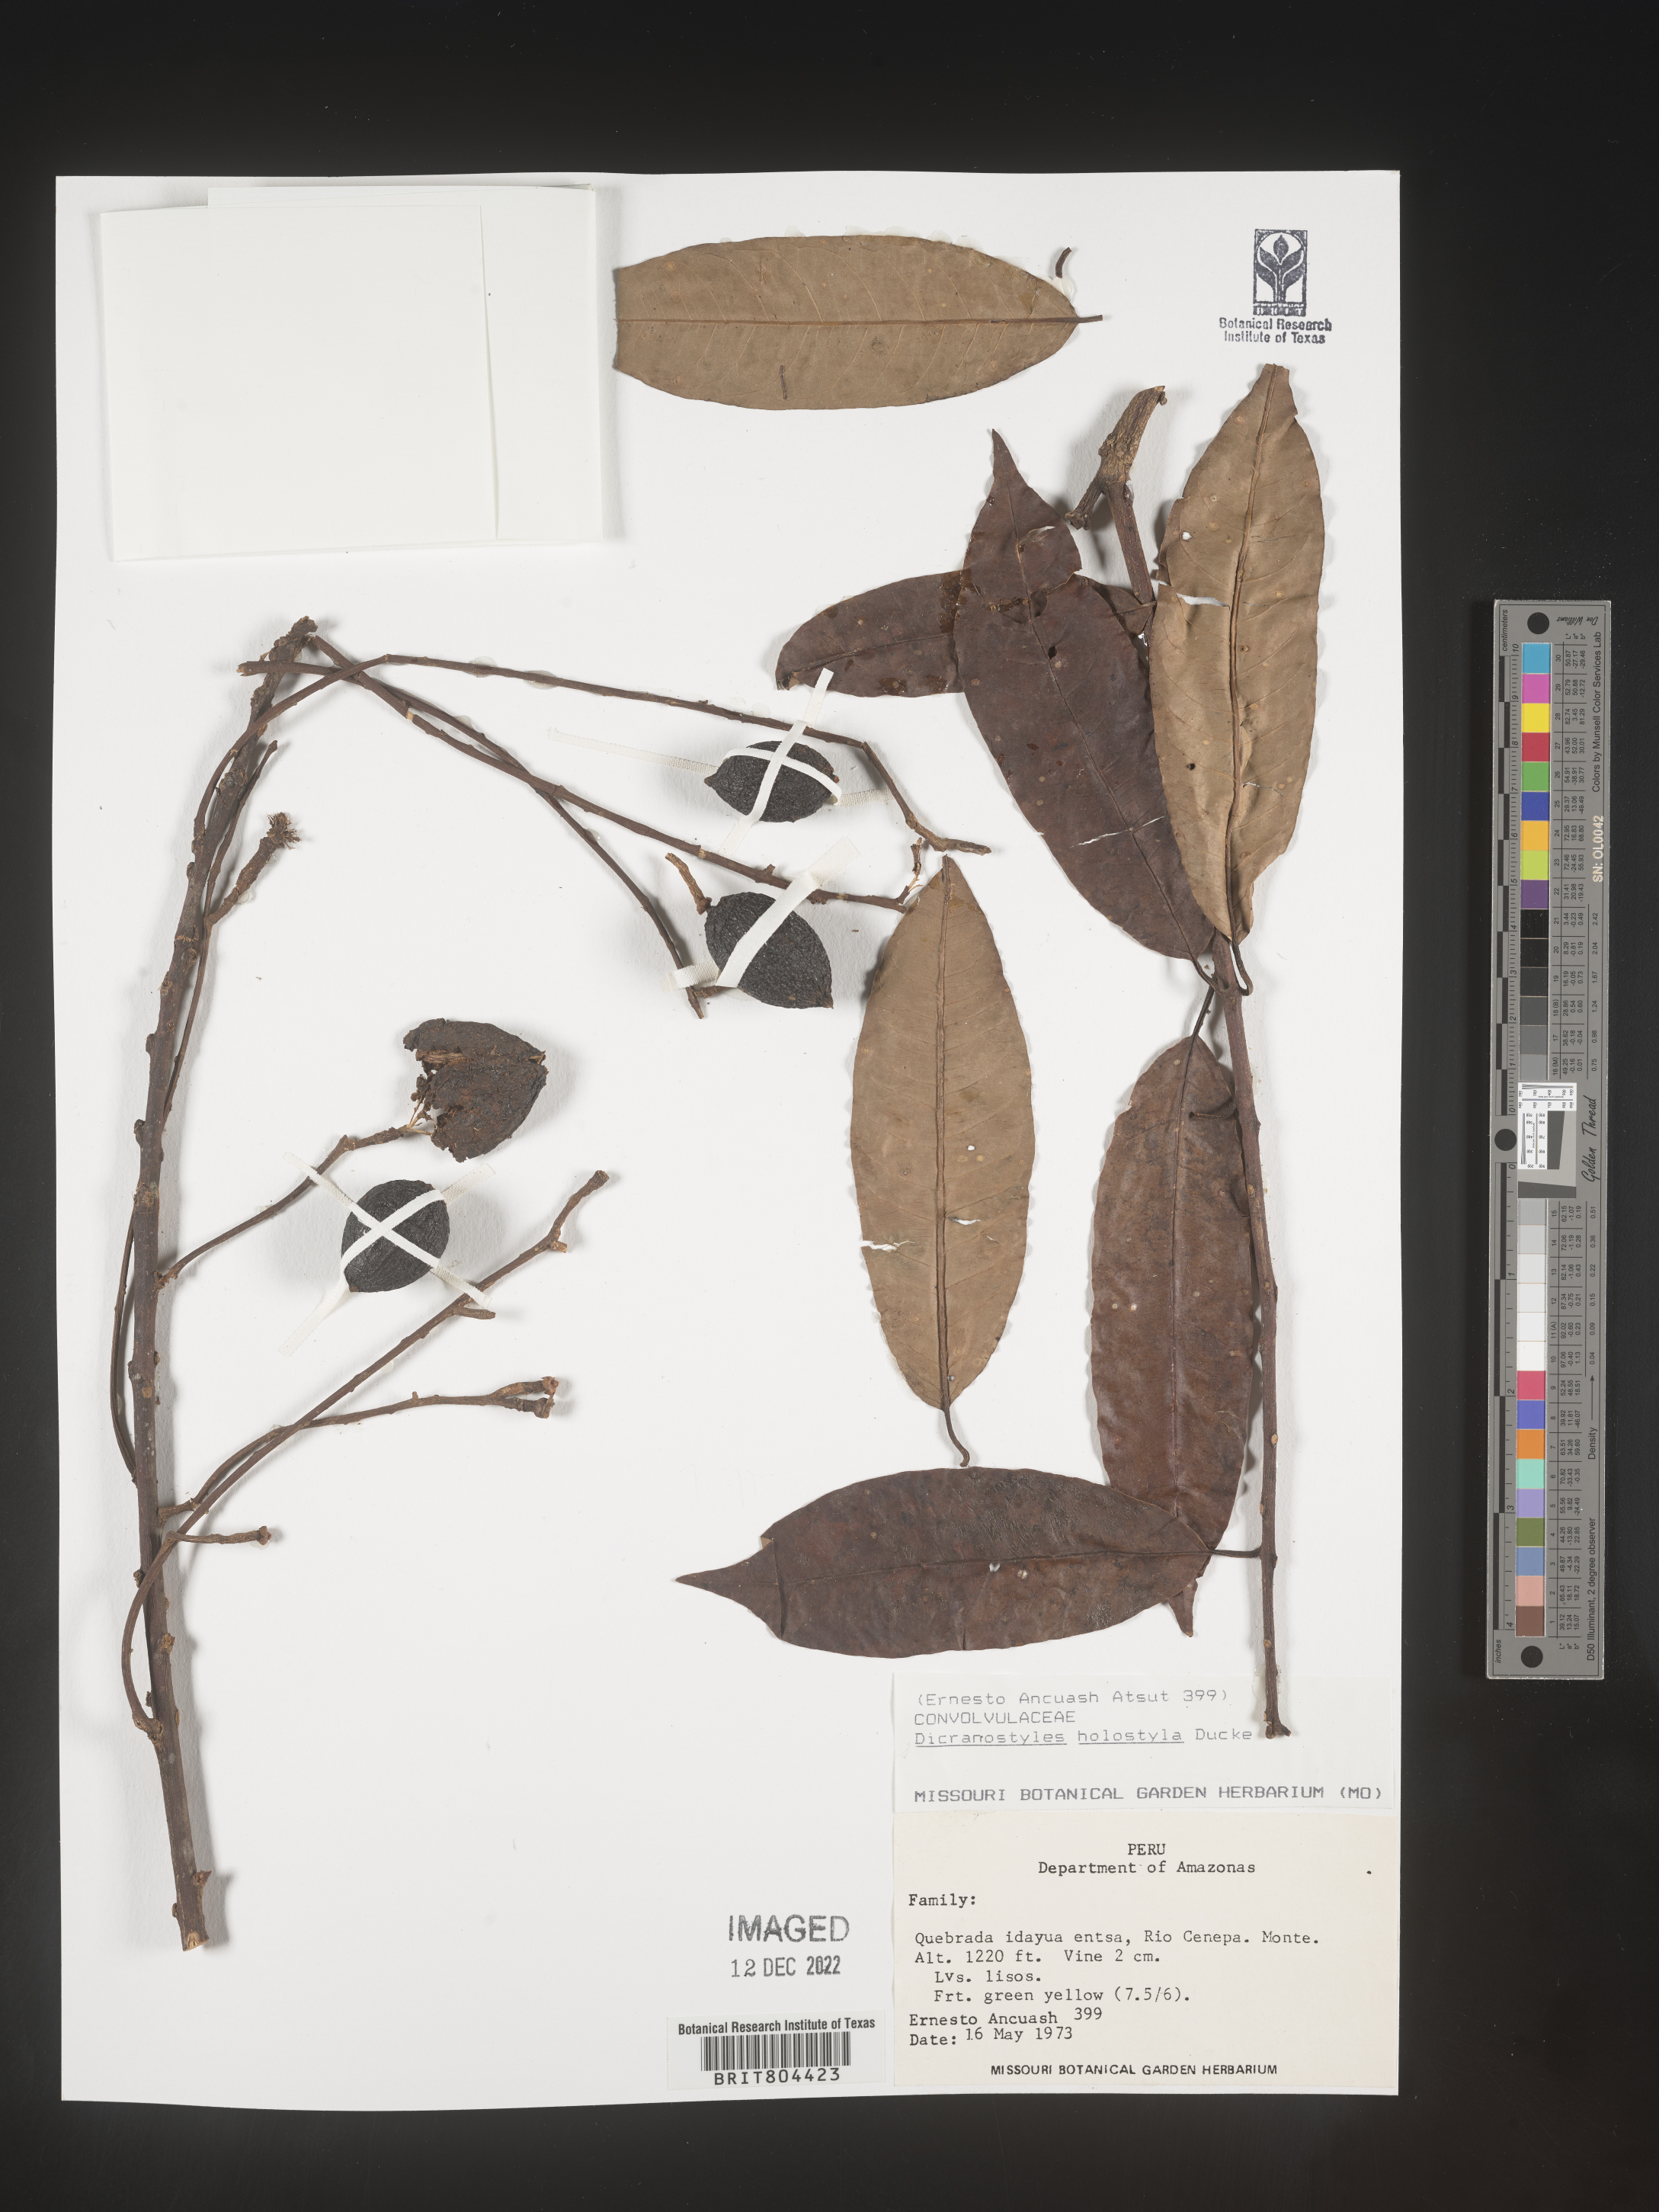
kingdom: Plantae
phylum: Tracheophyta
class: Magnoliopsida
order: Solanales
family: Convolvulaceae
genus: Dicranostyles
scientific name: Dicranostyles
